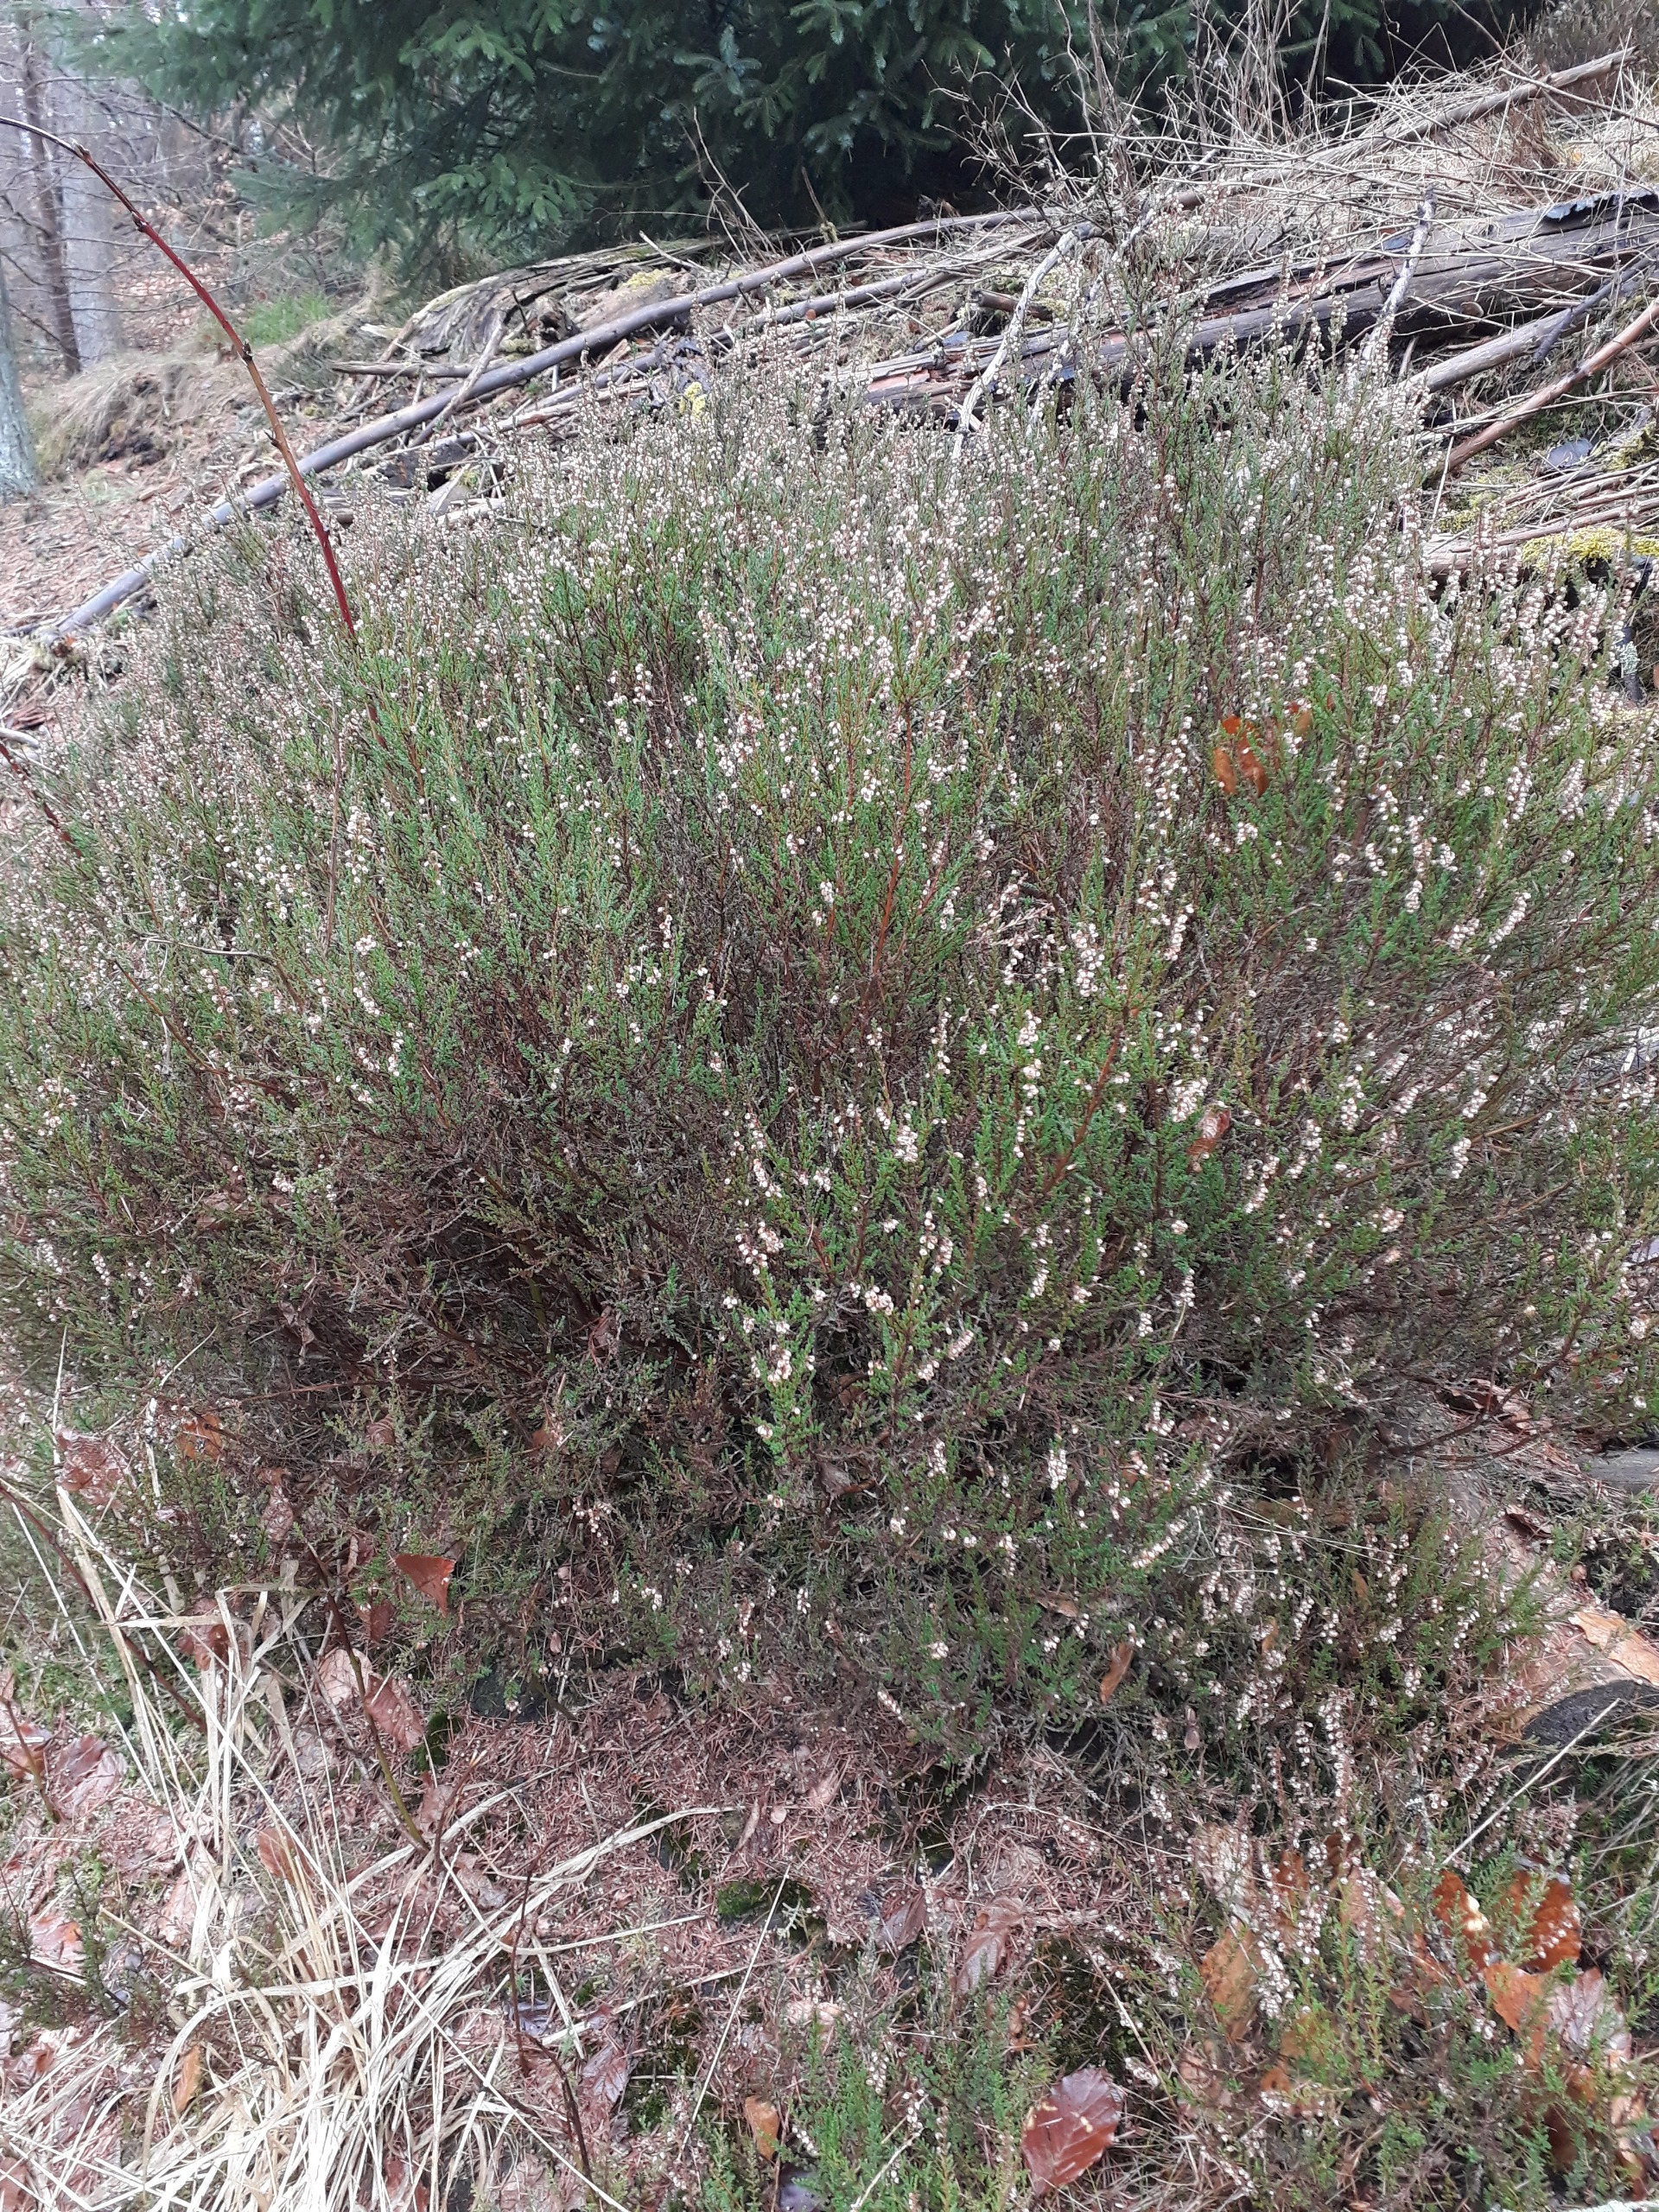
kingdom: Plantae
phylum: Tracheophyta
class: Magnoliopsida
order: Ericales
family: Ericaceae
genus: Calluna
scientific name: Calluna vulgaris
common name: Hedelyng
